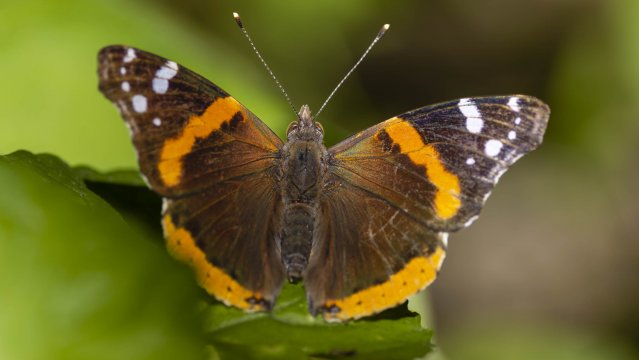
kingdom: Animalia
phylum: Arthropoda
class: Insecta
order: Lepidoptera
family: Nymphalidae
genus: Vanessa
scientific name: Vanessa atalanta
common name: Red Admiral
